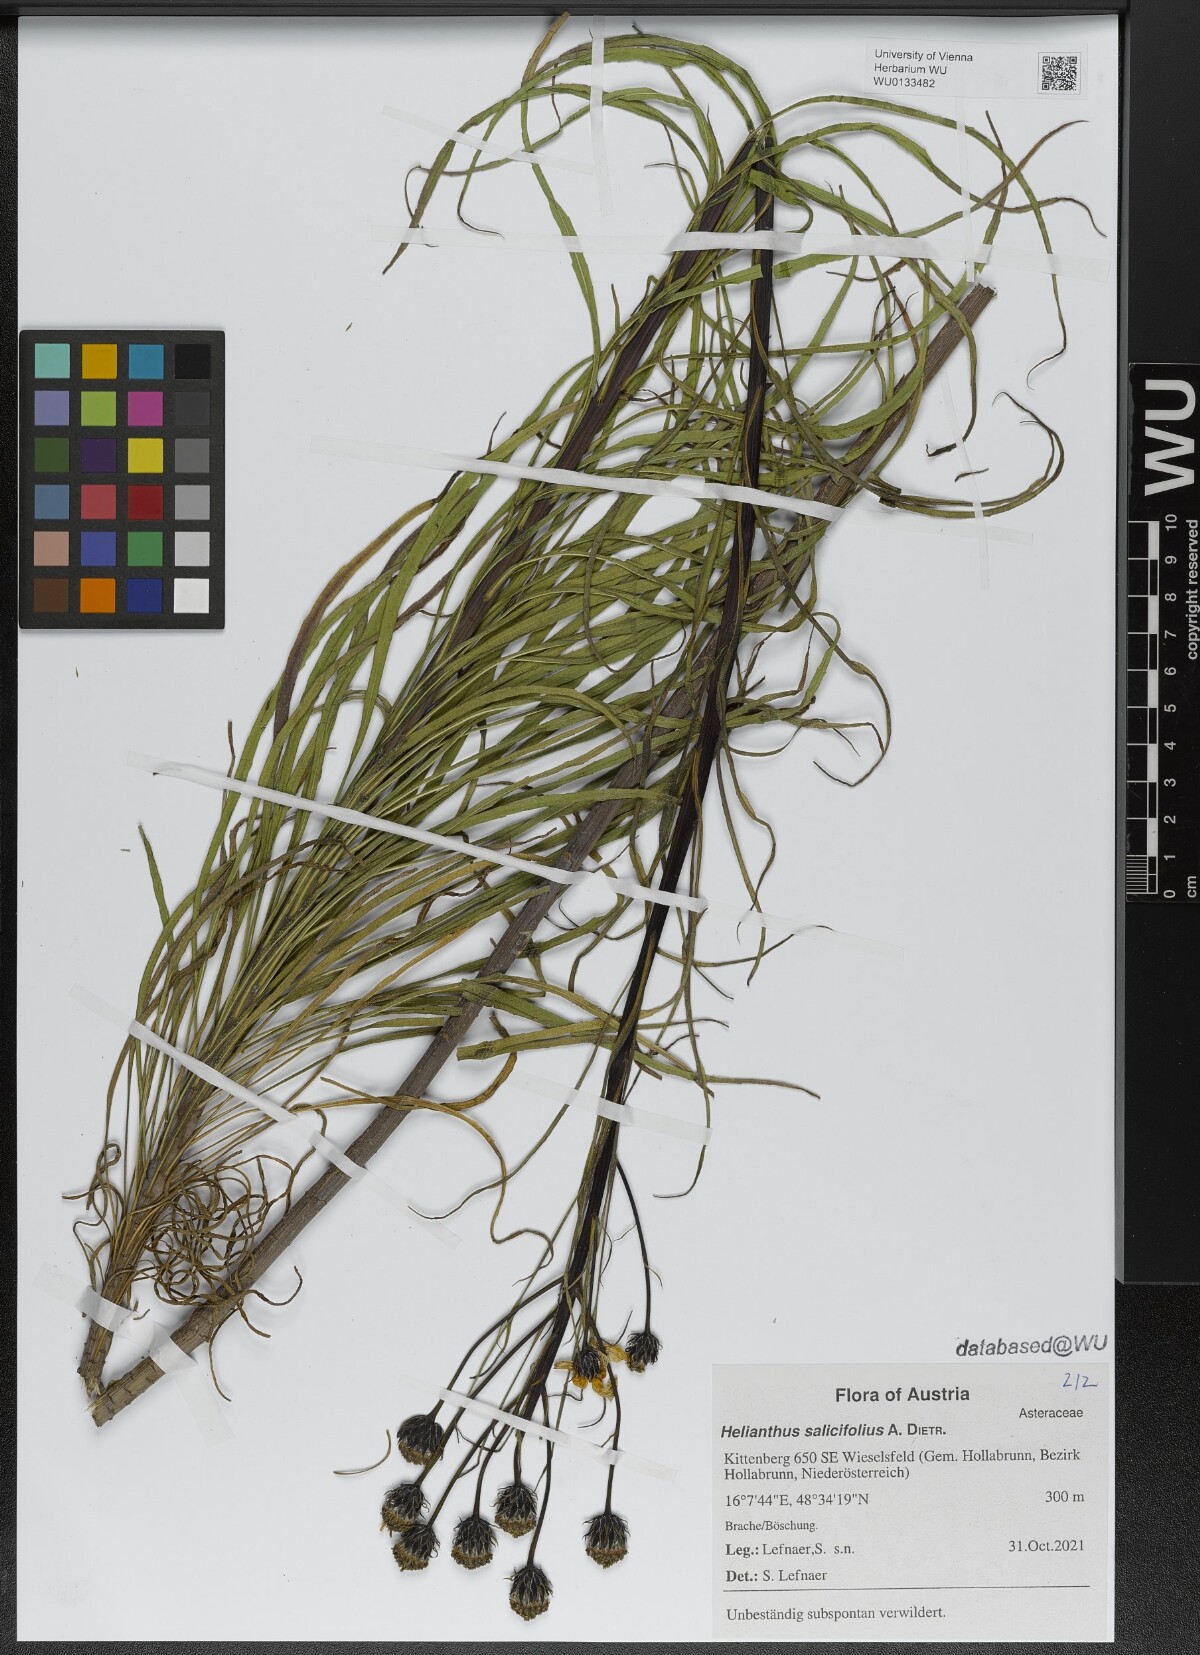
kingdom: Plantae
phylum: Tracheophyta
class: Magnoliopsida
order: Asterales
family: Asteraceae
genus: Helianthus
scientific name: Helianthus salicifolius
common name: Willowleaf sunflower
